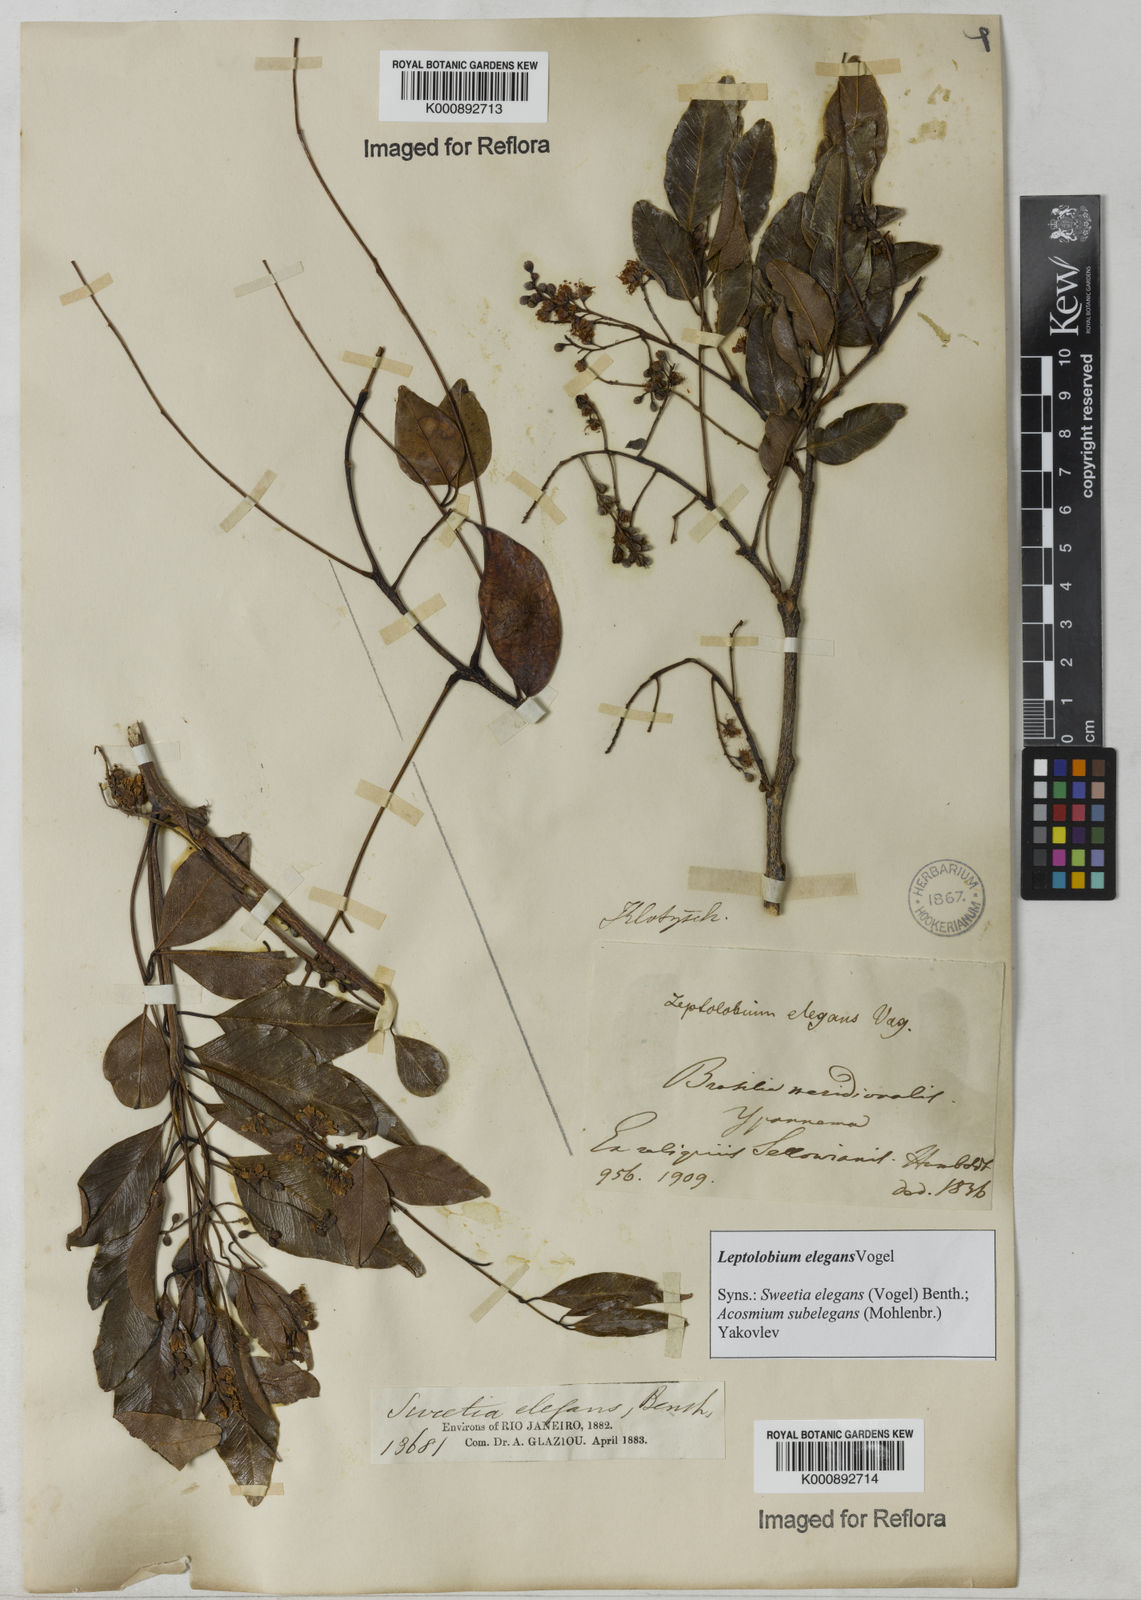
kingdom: Plantae
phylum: Tracheophyta
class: Magnoliopsida
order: Fabales
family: Fabaceae
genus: Leptolobium
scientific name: Leptolobium elegans
